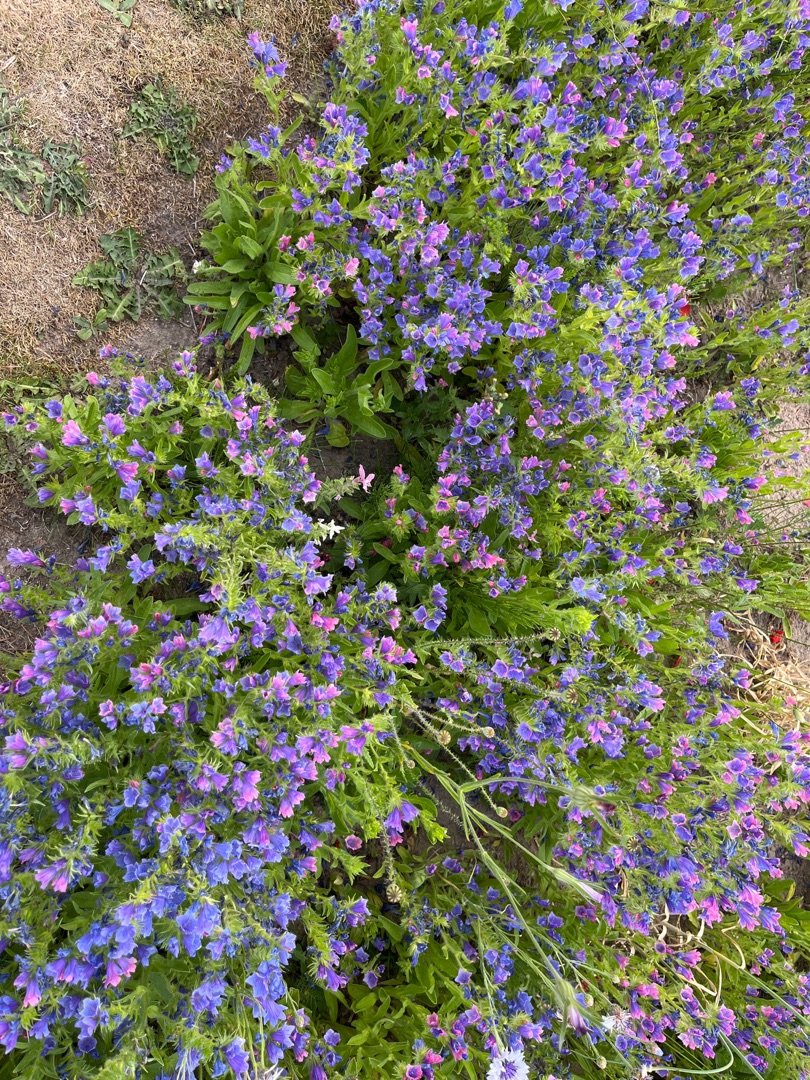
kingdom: Plantae
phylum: Tracheophyta
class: Magnoliopsida
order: Boraginales
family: Boraginaceae
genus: Echium
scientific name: Echium plantagineum
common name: Vejbred-slangehoved
